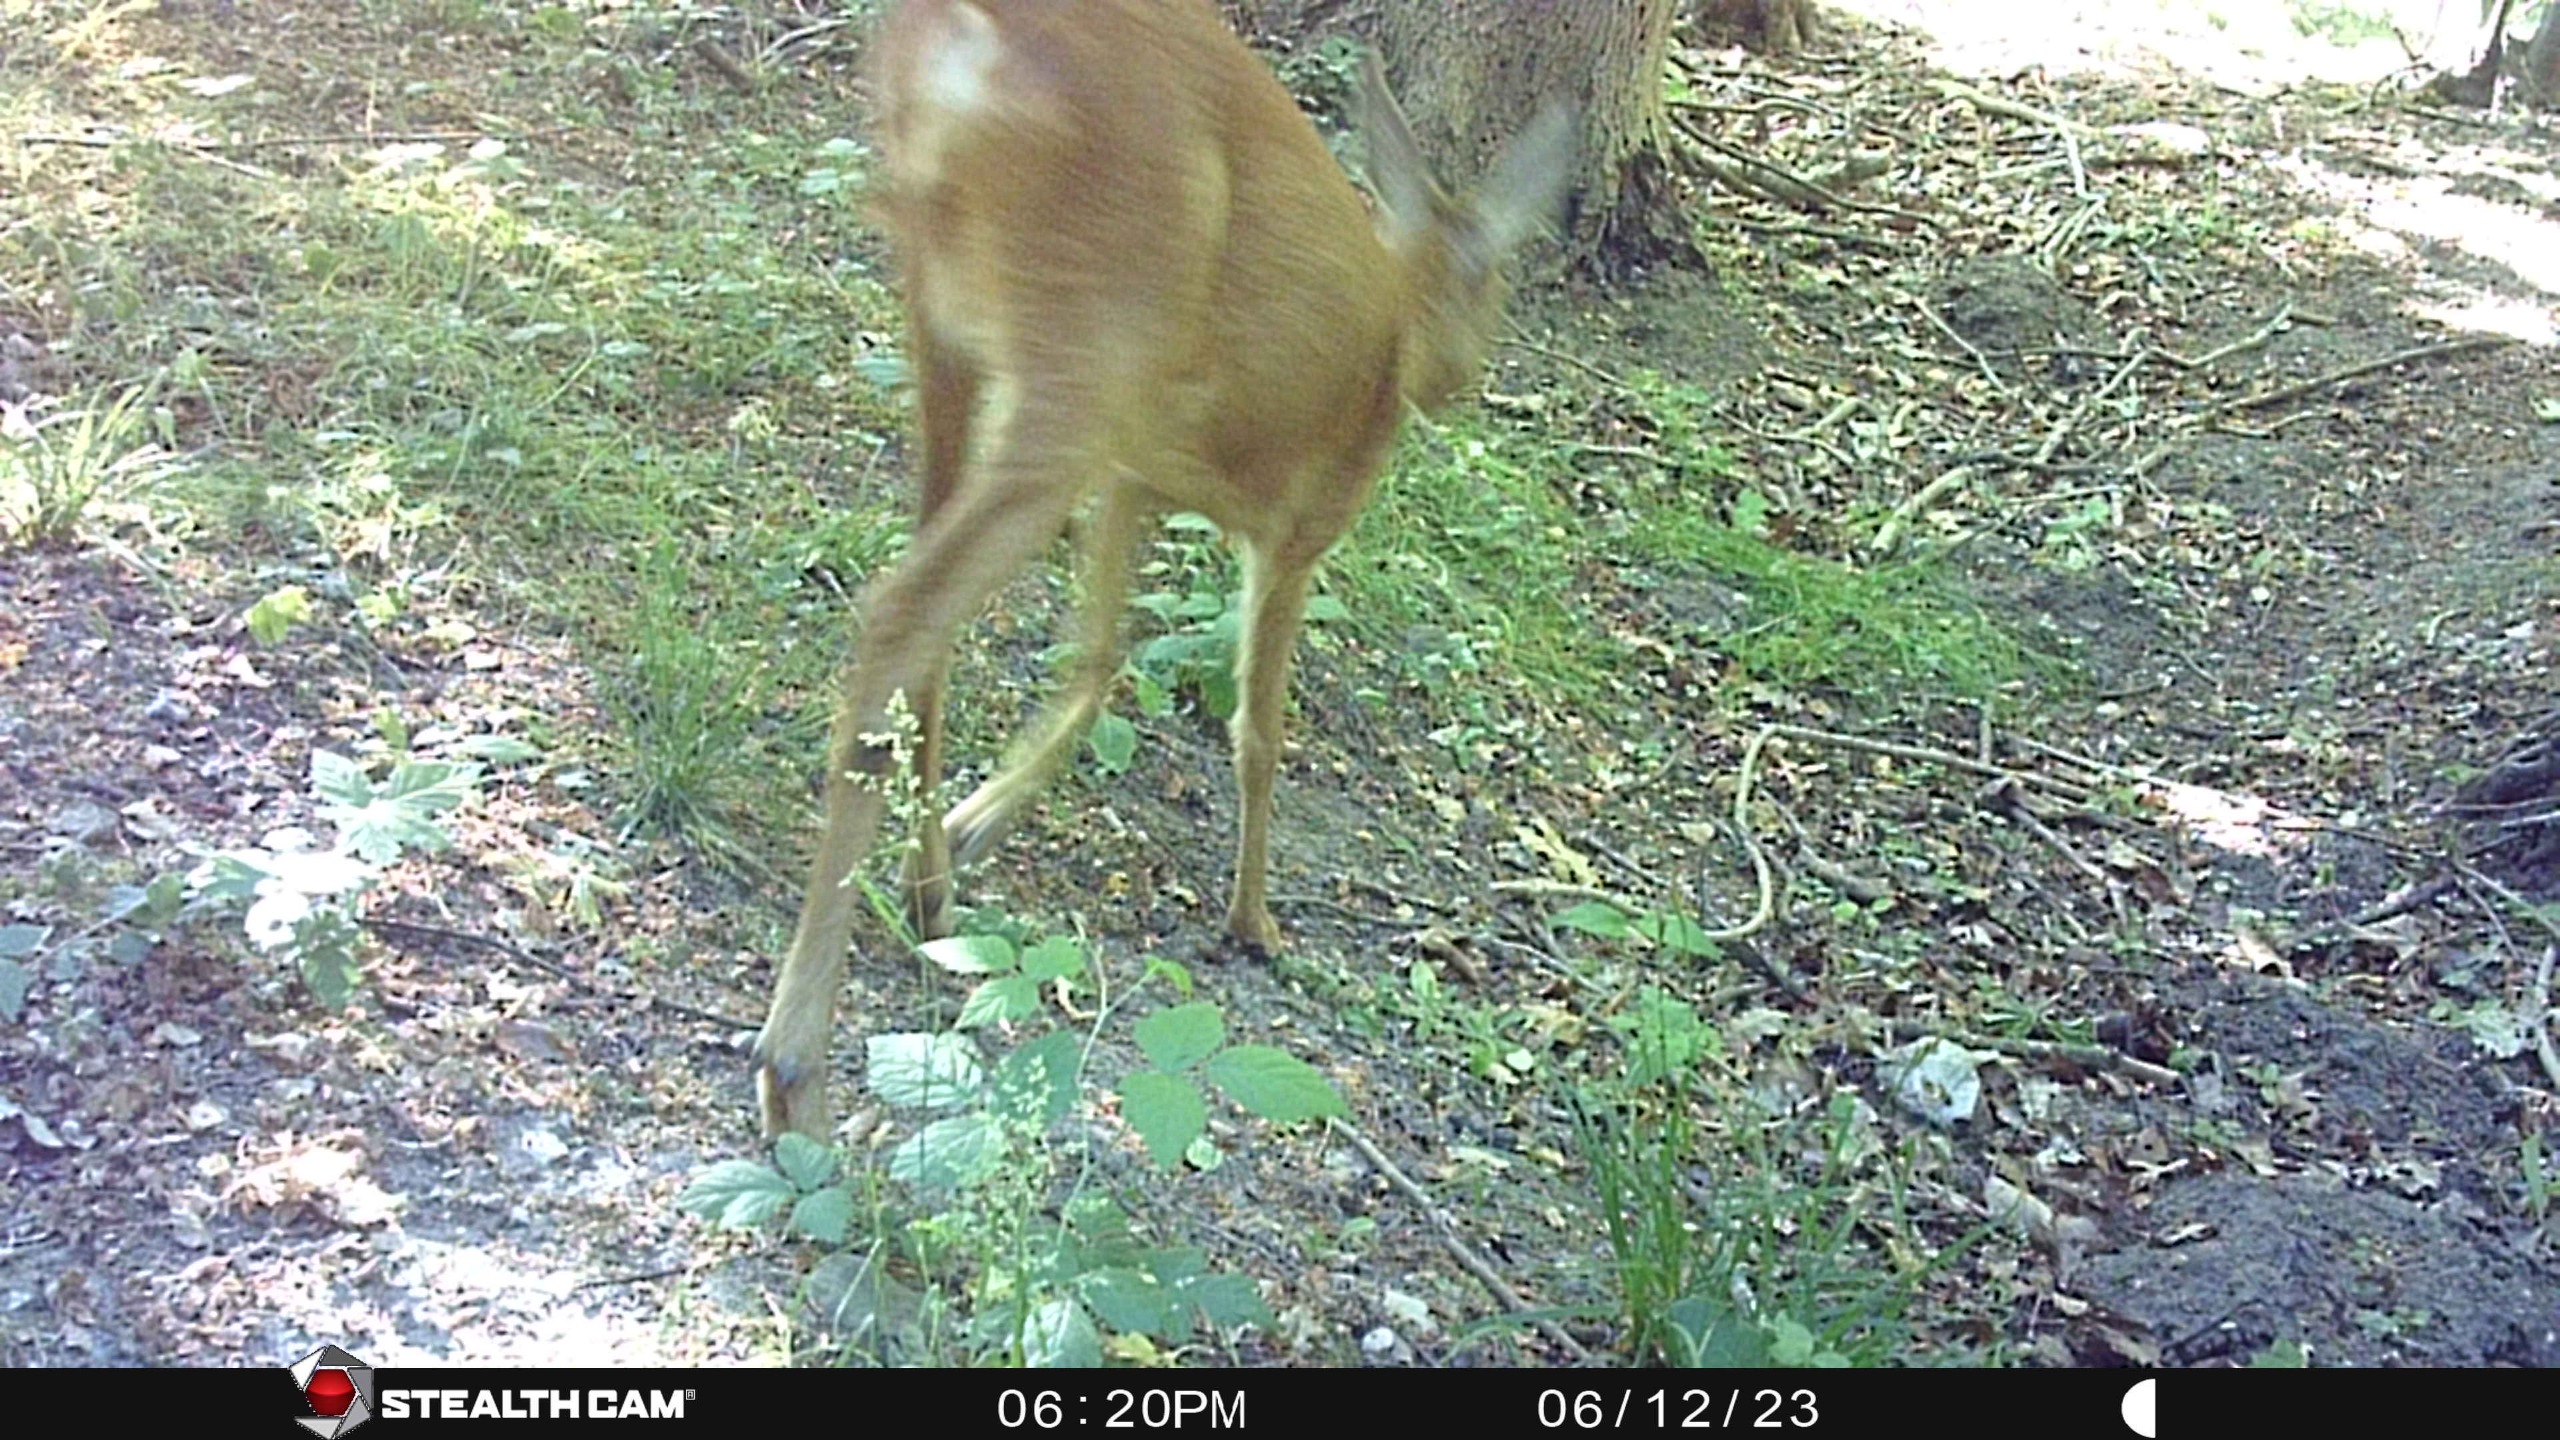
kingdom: Animalia
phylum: Chordata
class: Mammalia
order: Artiodactyla
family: Cervidae
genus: Capreolus
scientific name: Capreolus capreolus
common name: Rådyr
